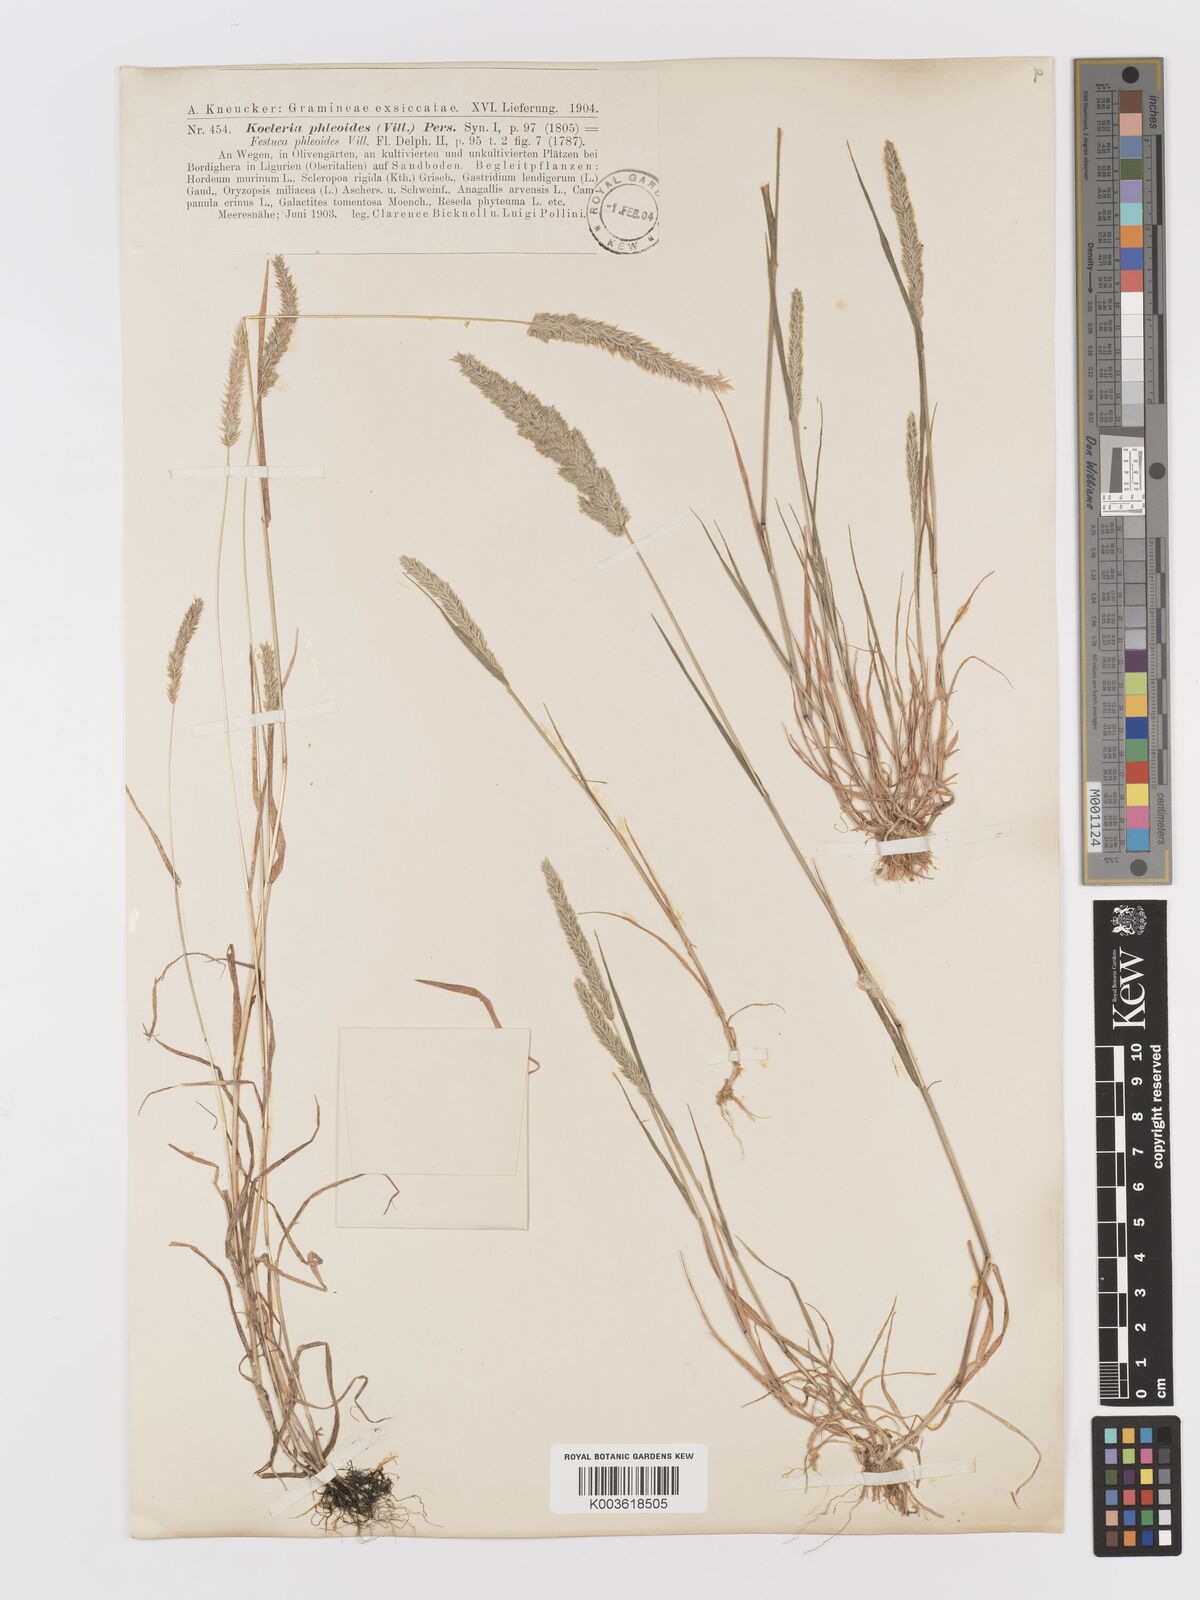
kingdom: Plantae
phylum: Tracheophyta
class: Liliopsida
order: Poales
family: Poaceae
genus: Rostraria
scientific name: Rostraria cristata
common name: Mediterranean hair-grass
